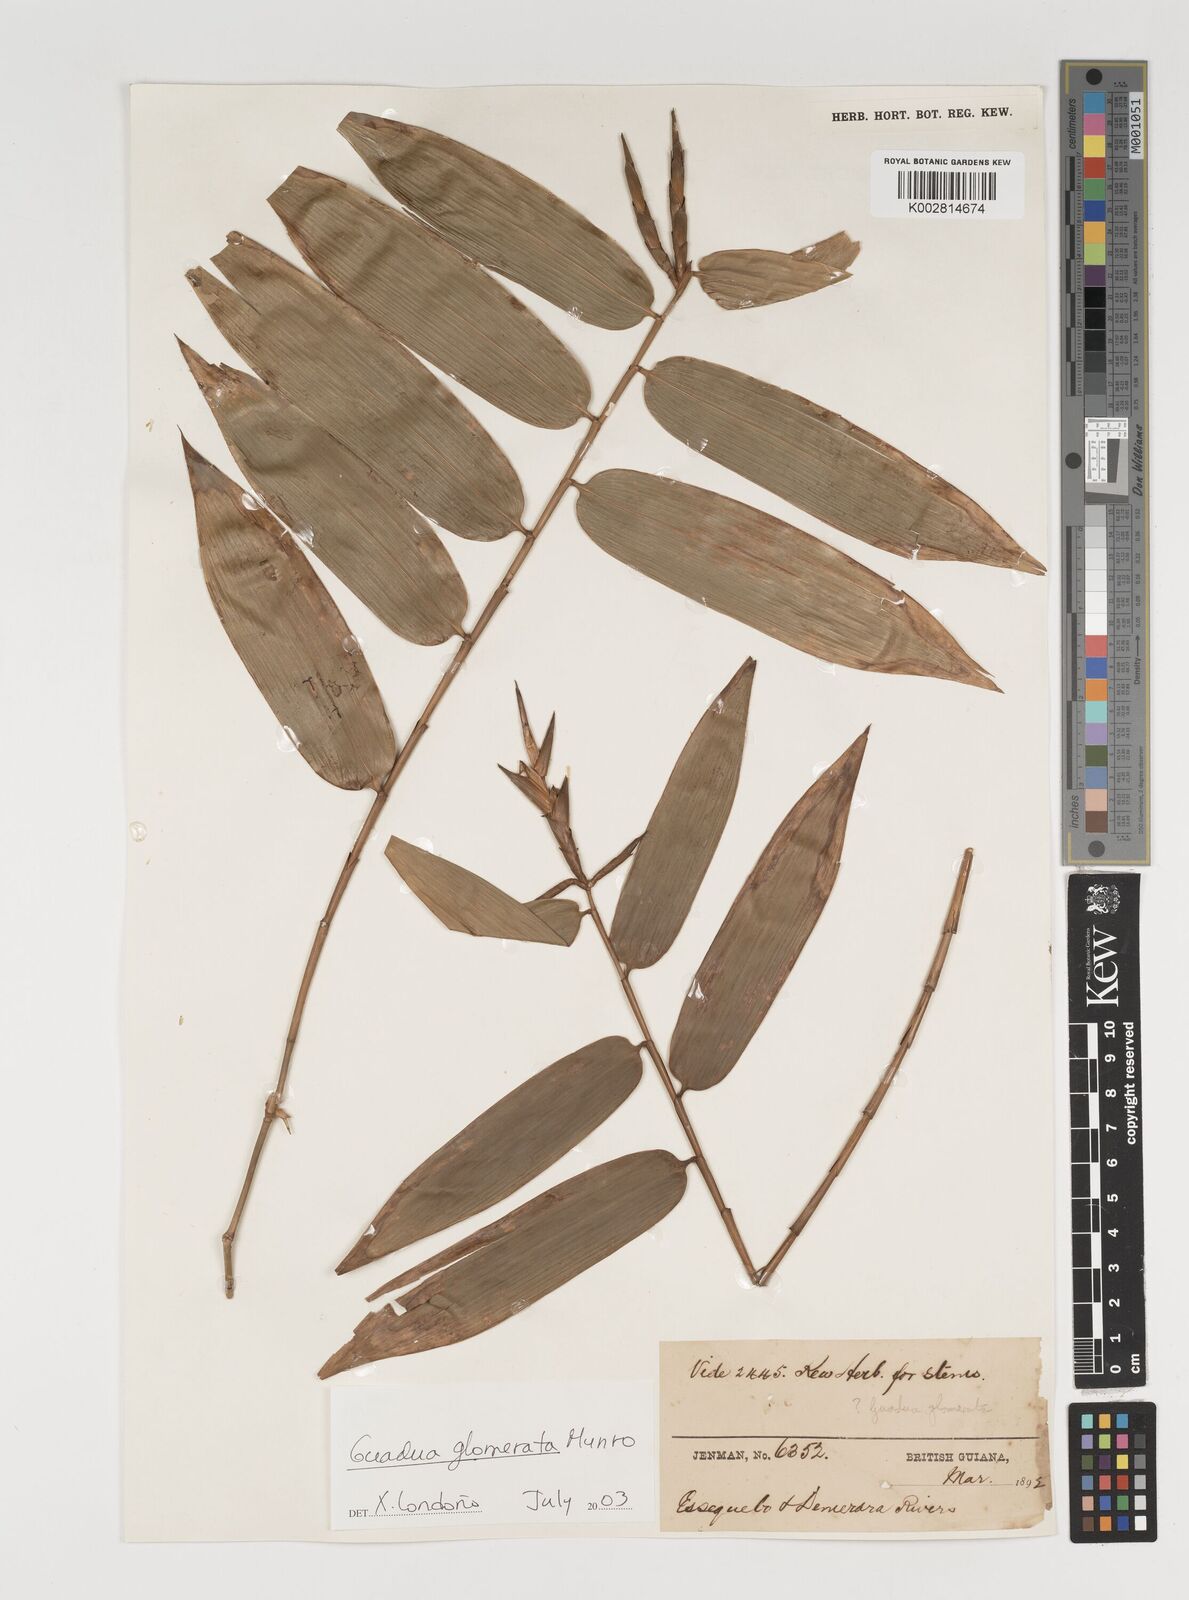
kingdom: Plantae
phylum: Tracheophyta
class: Liliopsida
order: Poales
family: Poaceae
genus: Guadua
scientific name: Guadua glomerata
